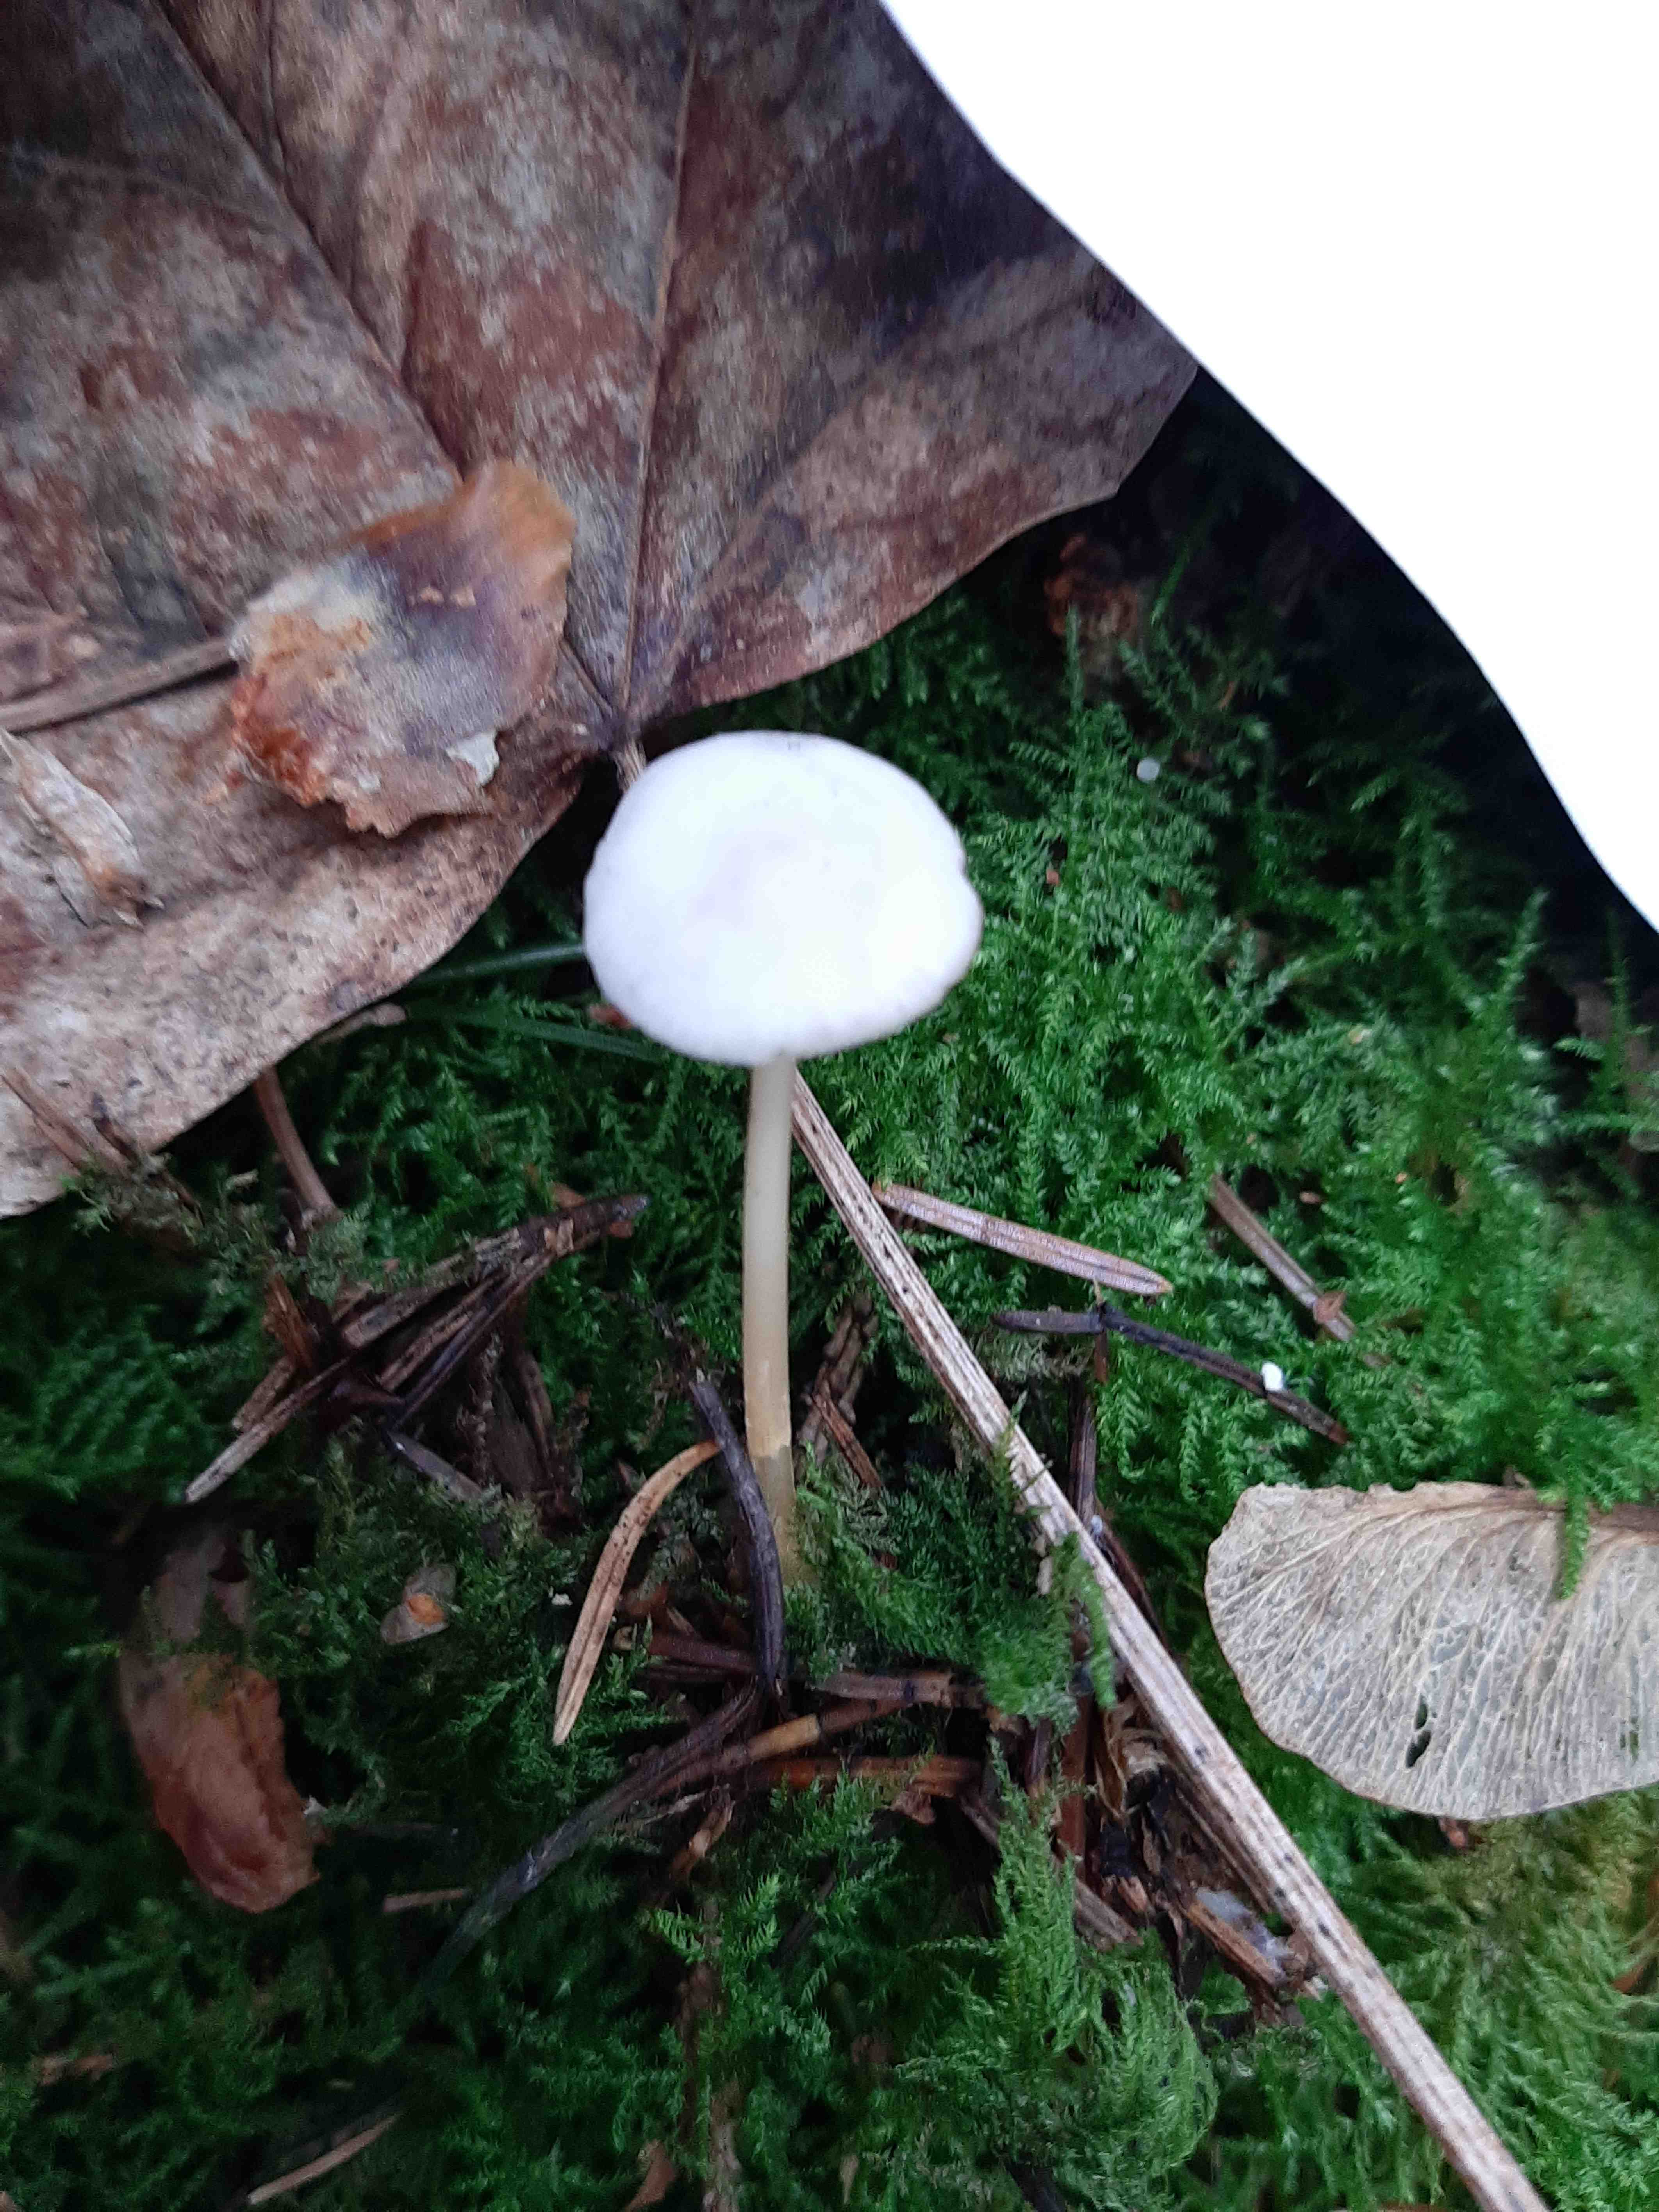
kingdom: Fungi
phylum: Basidiomycota
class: Agaricomycetes
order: Agaricales
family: Physalacriaceae
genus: Strobilurus
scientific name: Strobilurus esculentus
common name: gran-koglehat
